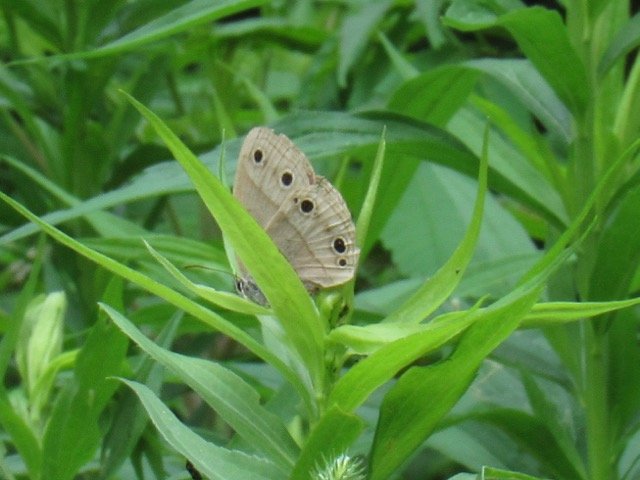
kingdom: Animalia
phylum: Arthropoda
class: Insecta
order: Lepidoptera
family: Nymphalidae
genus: Euptychia
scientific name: Euptychia cymela
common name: Little Wood Satyr
